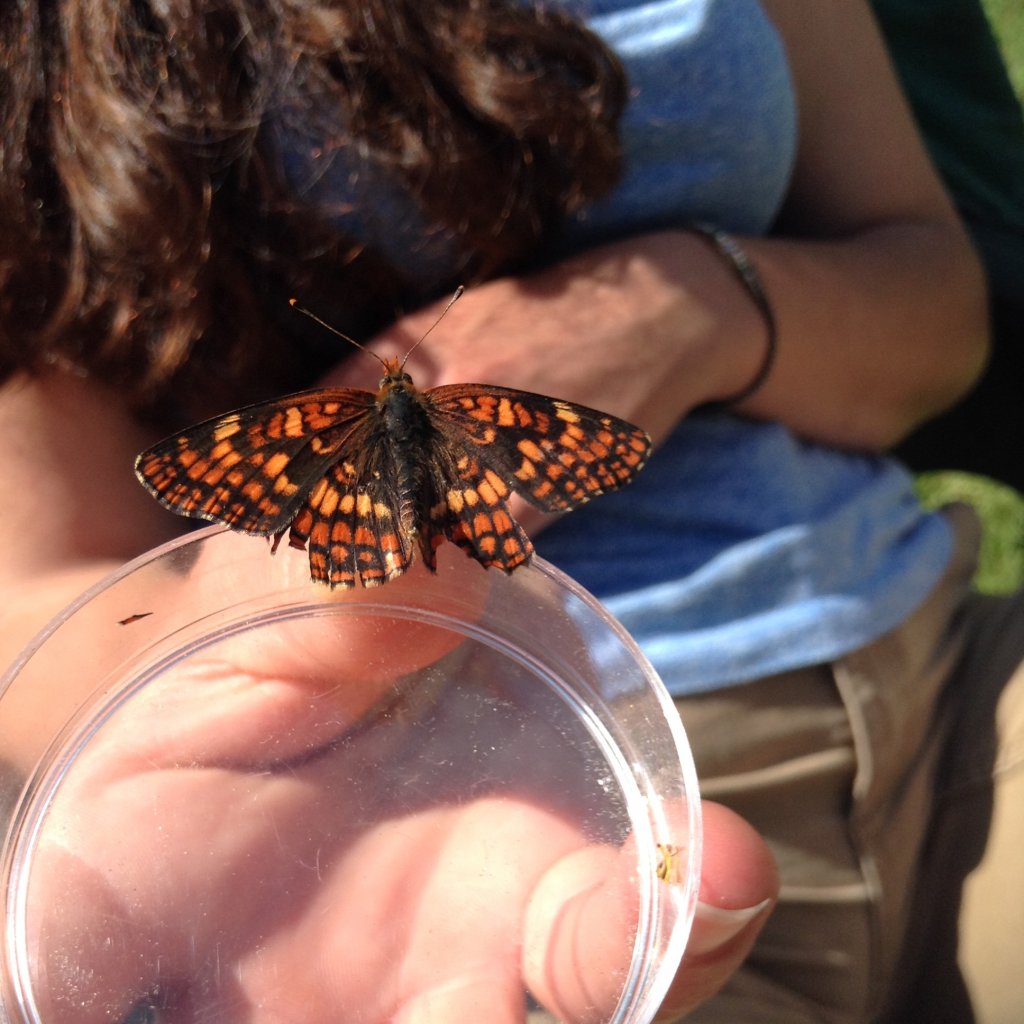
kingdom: Animalia
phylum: Arthropoda
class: Insecta
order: Lepidoptera
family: Nymphalidae
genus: Chlosyne
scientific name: Chlosyne palla
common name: Northern Checkerspot
